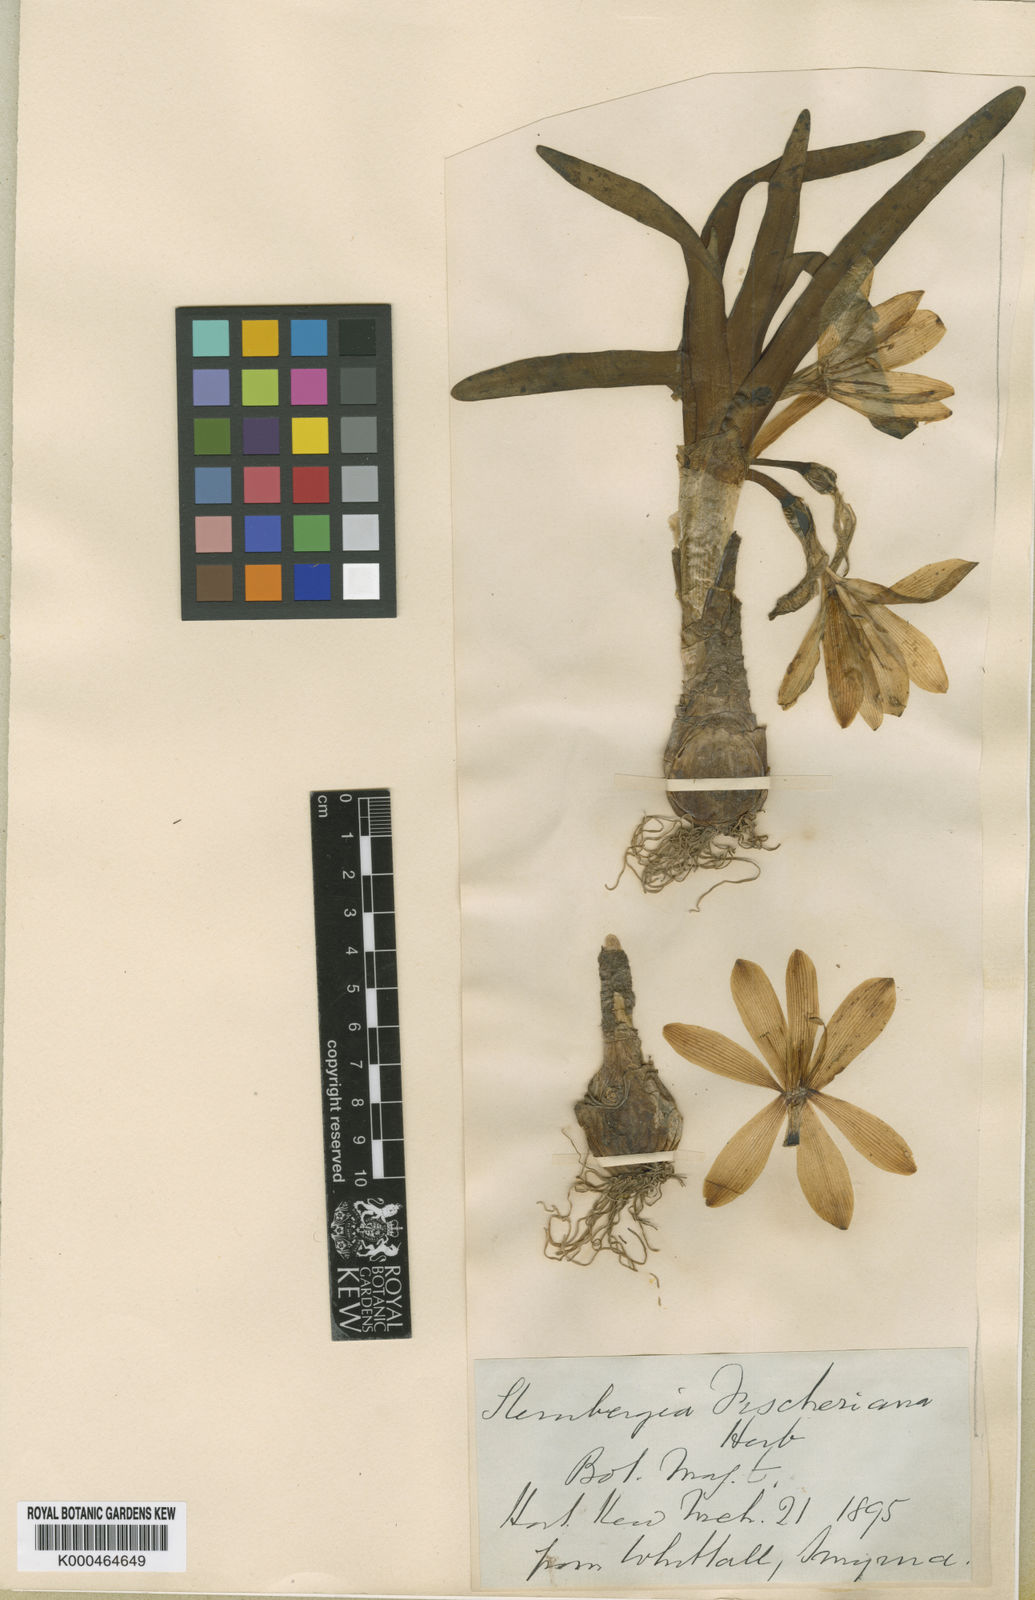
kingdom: Plantae
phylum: Tracheophyta
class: Liliopsida
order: Asparagales
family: Amaryllidaceae
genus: Sternbergia
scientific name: Sternbergia vernalis
